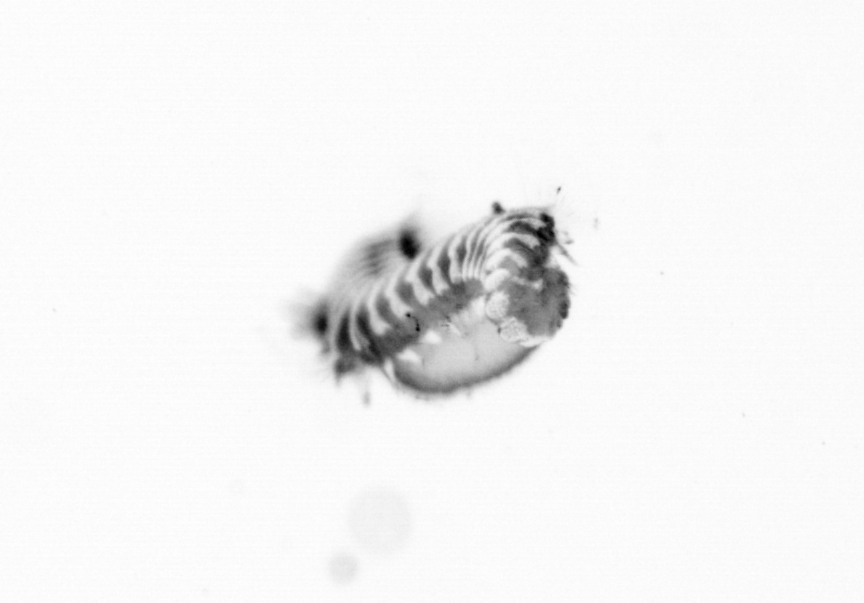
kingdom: Animalia
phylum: Annelida
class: Polychaeta
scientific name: Polychaeta
